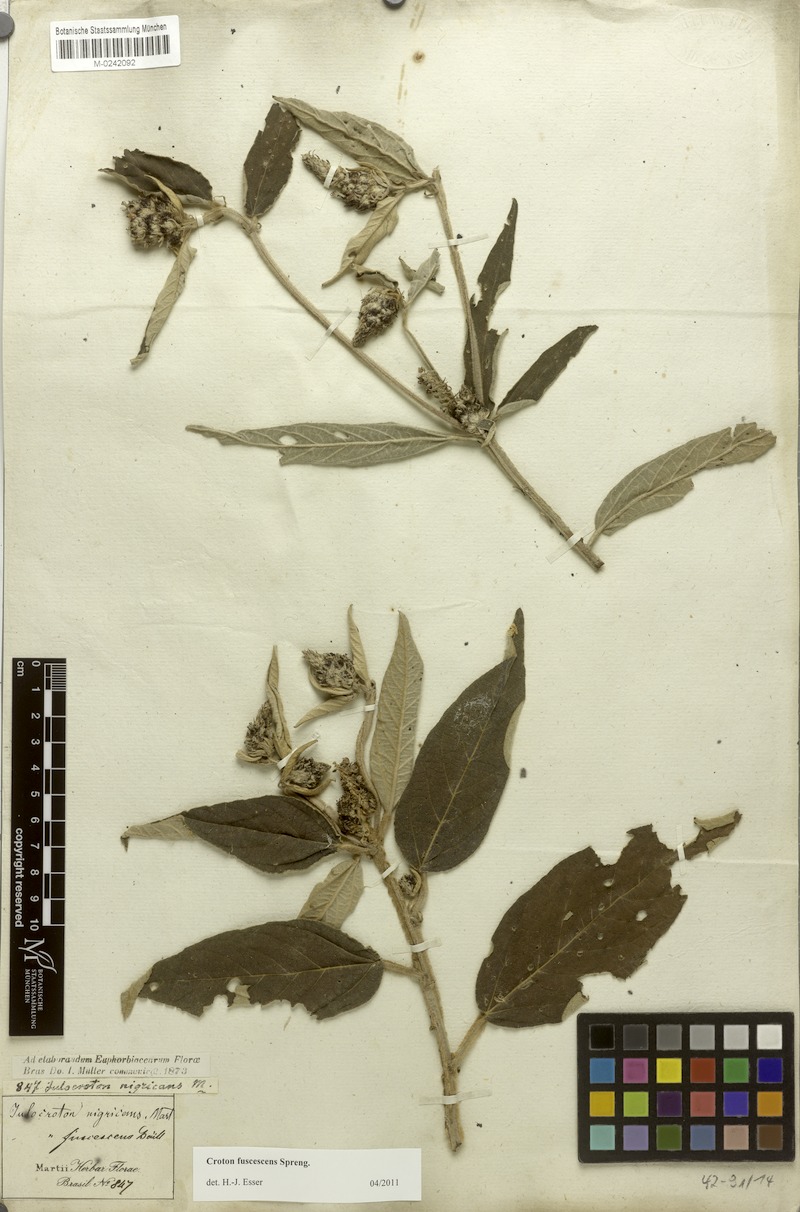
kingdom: Plantae
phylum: Tracheophyta
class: Magnoliopsida
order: Malpighiales
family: Euphorbiaceae
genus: Croton
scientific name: Croton gnaphaloides
